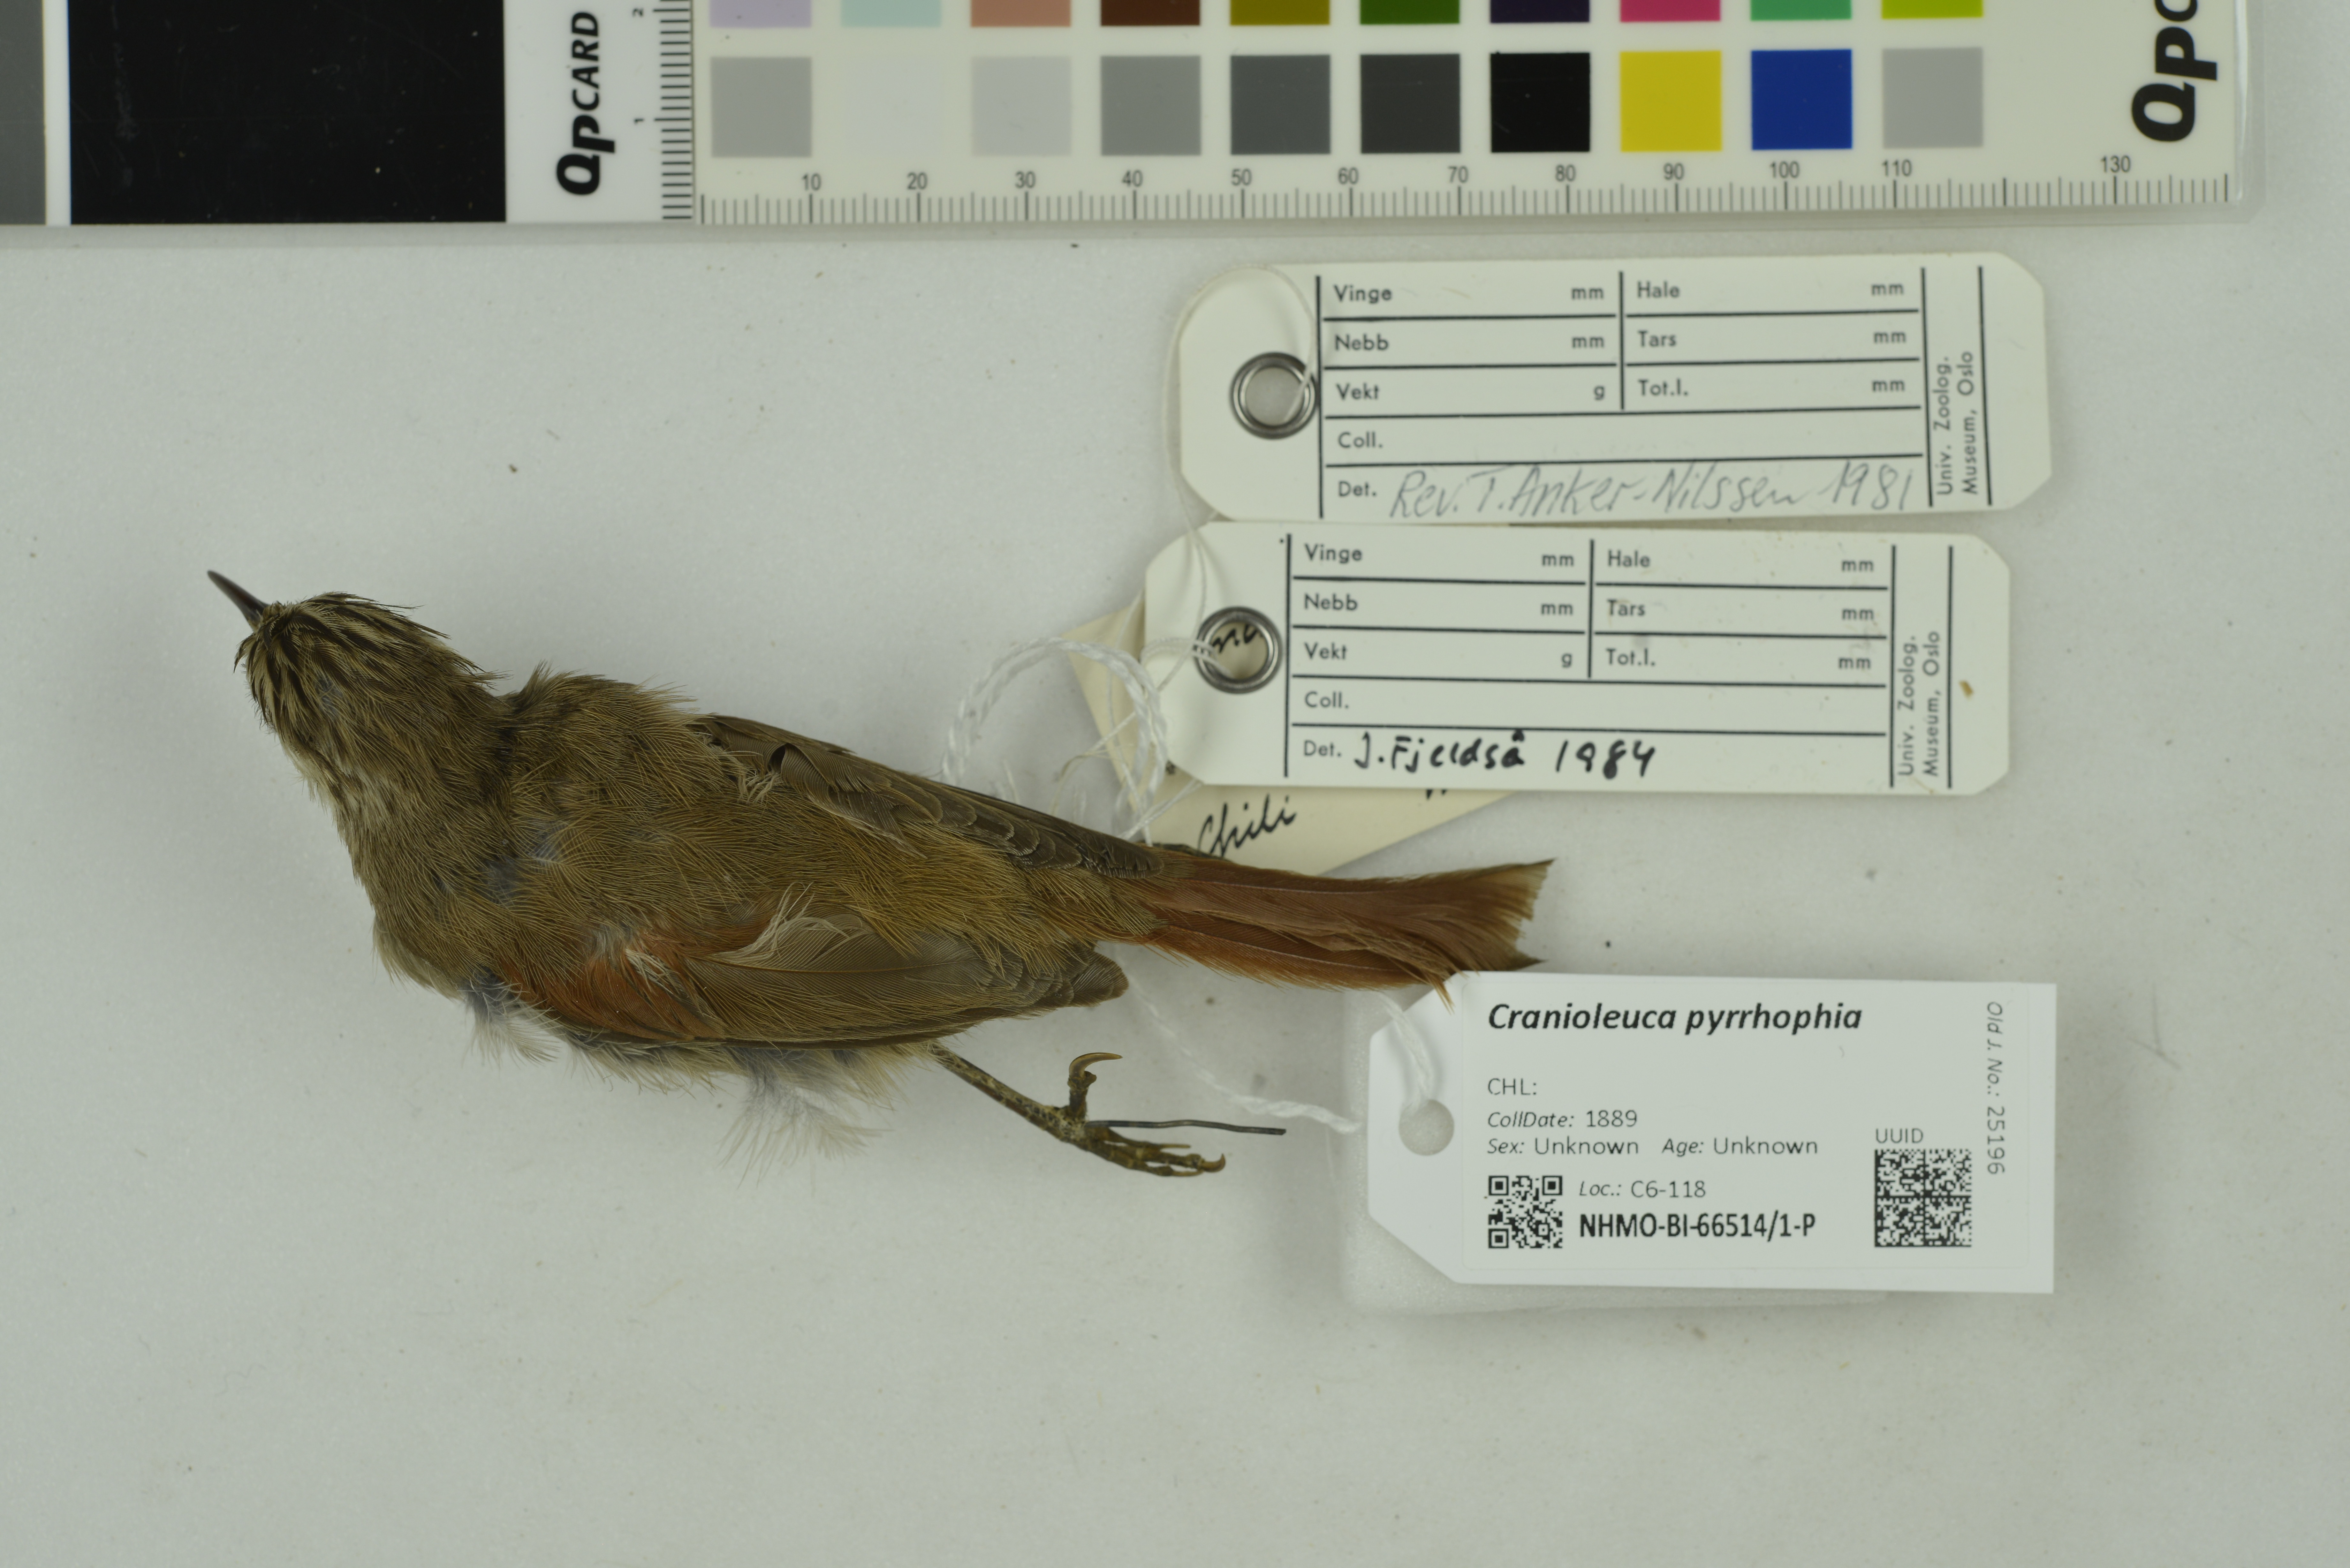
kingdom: Animalia
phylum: Chordata
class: Aves
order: Passeriformes
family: Furnariidae
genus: Cranioleuca
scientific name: Cranioleuca pyrrhophia
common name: Stripe-crowned spinetail
